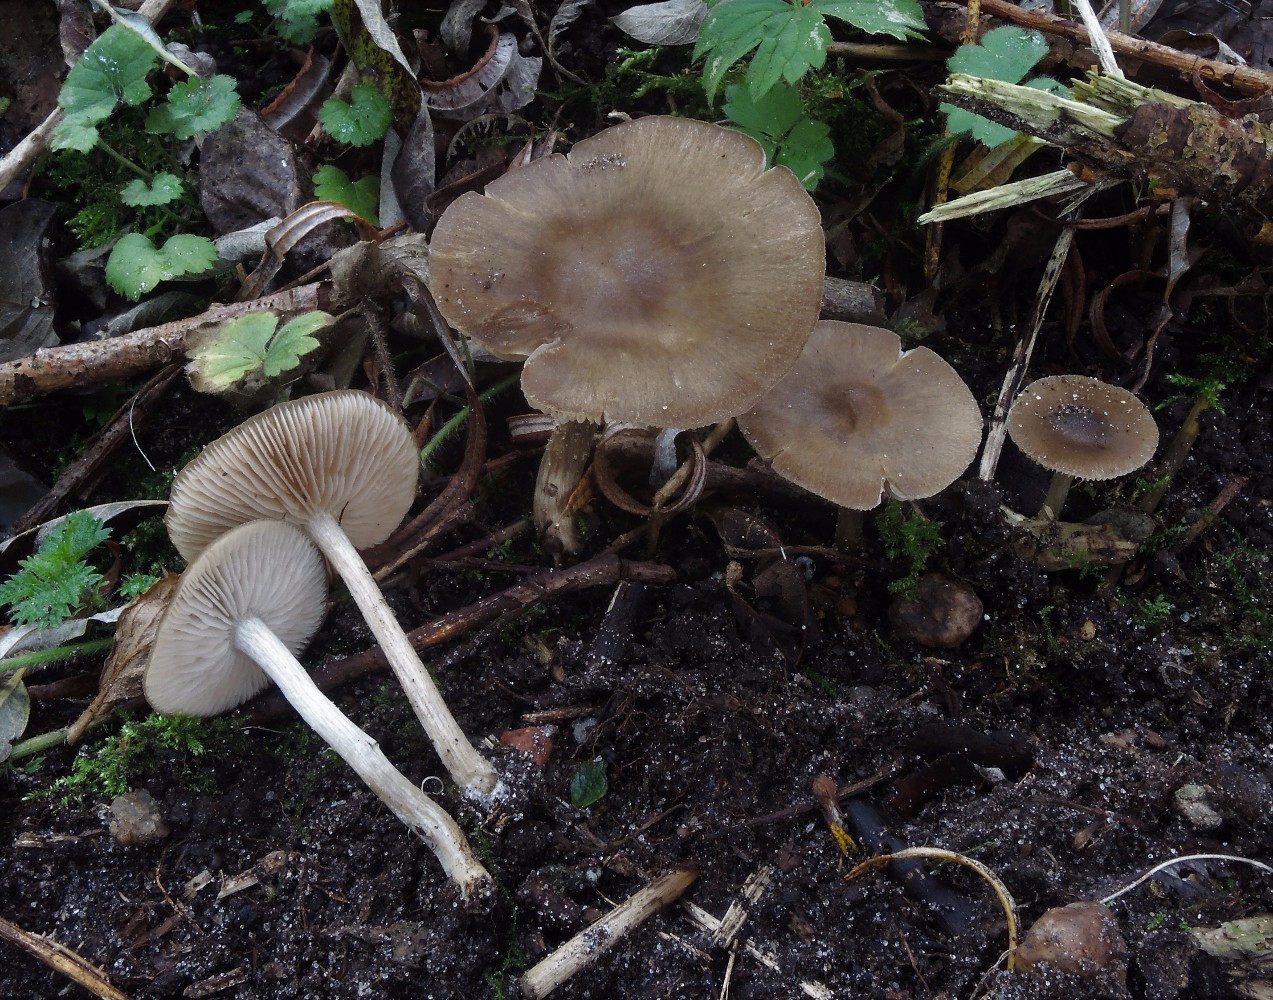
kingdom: Fungi
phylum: Basidiomycota
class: Agaricomycetes
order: Agaricales
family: Entolomataceae
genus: Entoloma
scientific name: Entoloma rhodopolium
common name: skov-rødblad
